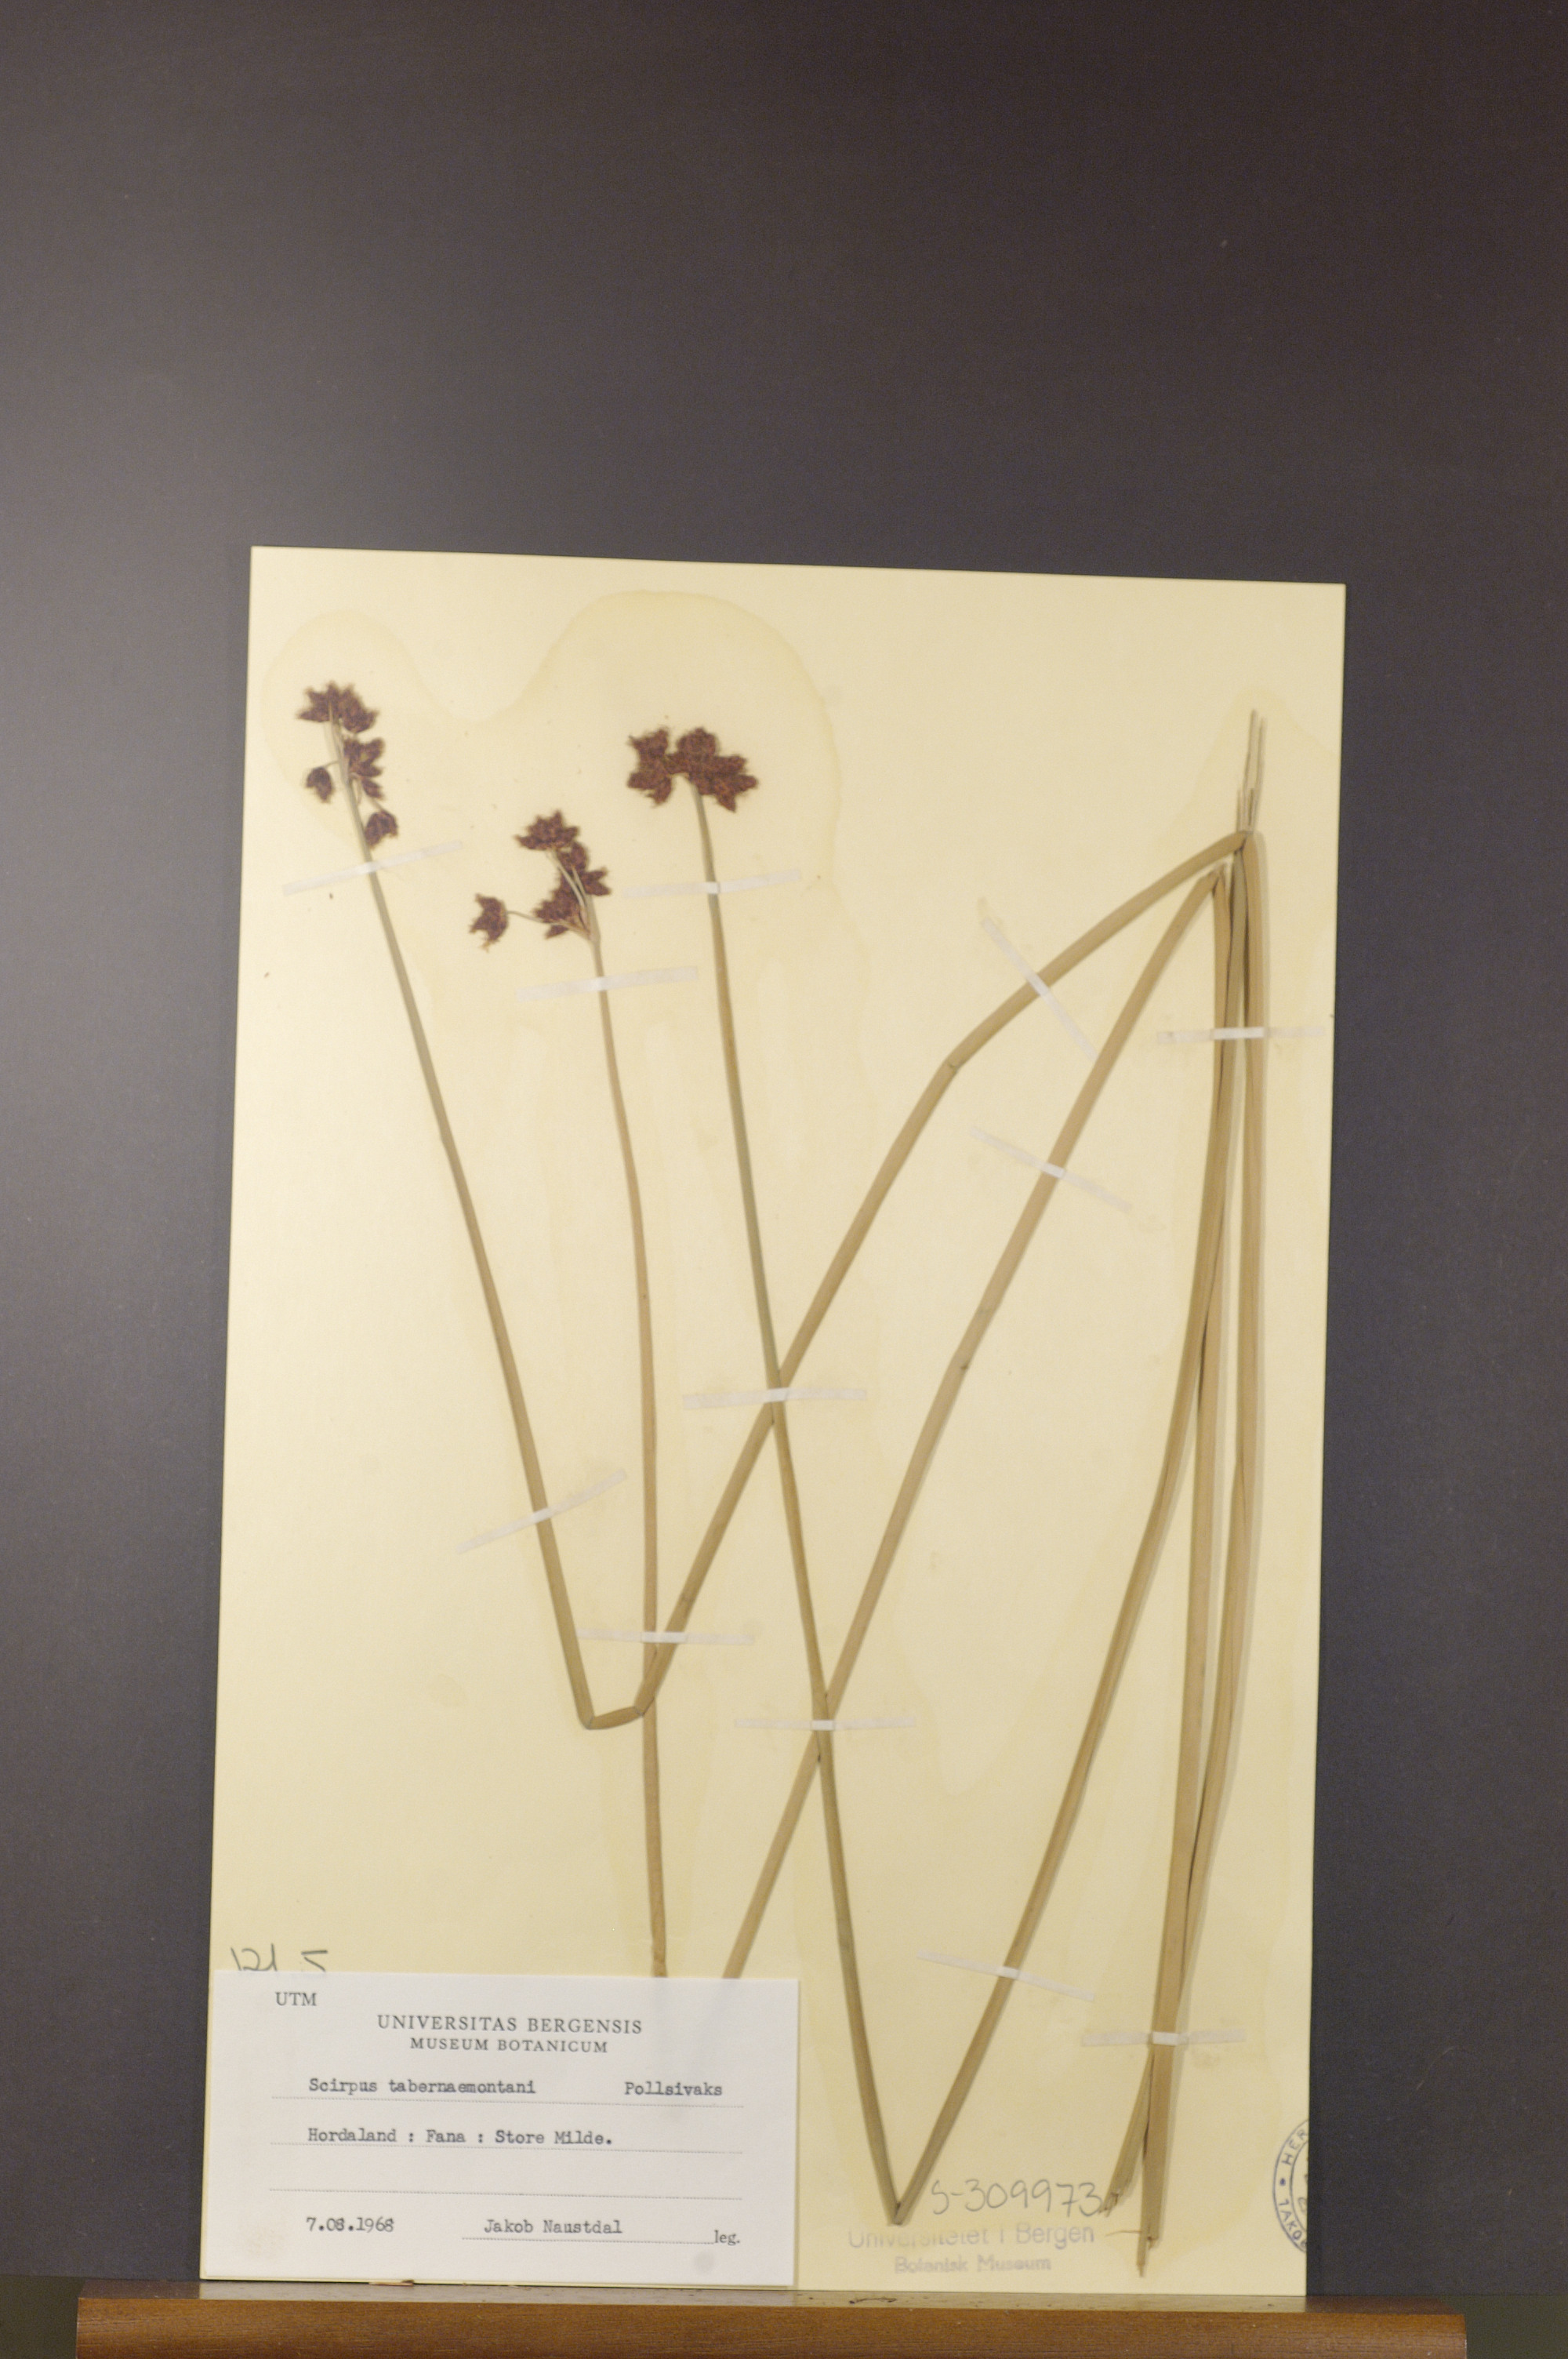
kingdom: Plantae
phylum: Tracheophyta
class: Liliopsida
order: Poales
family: Cyperaceae
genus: Schoenoplectus
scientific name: Schoenoplectus tabernaemontani
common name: Grey club-rush
